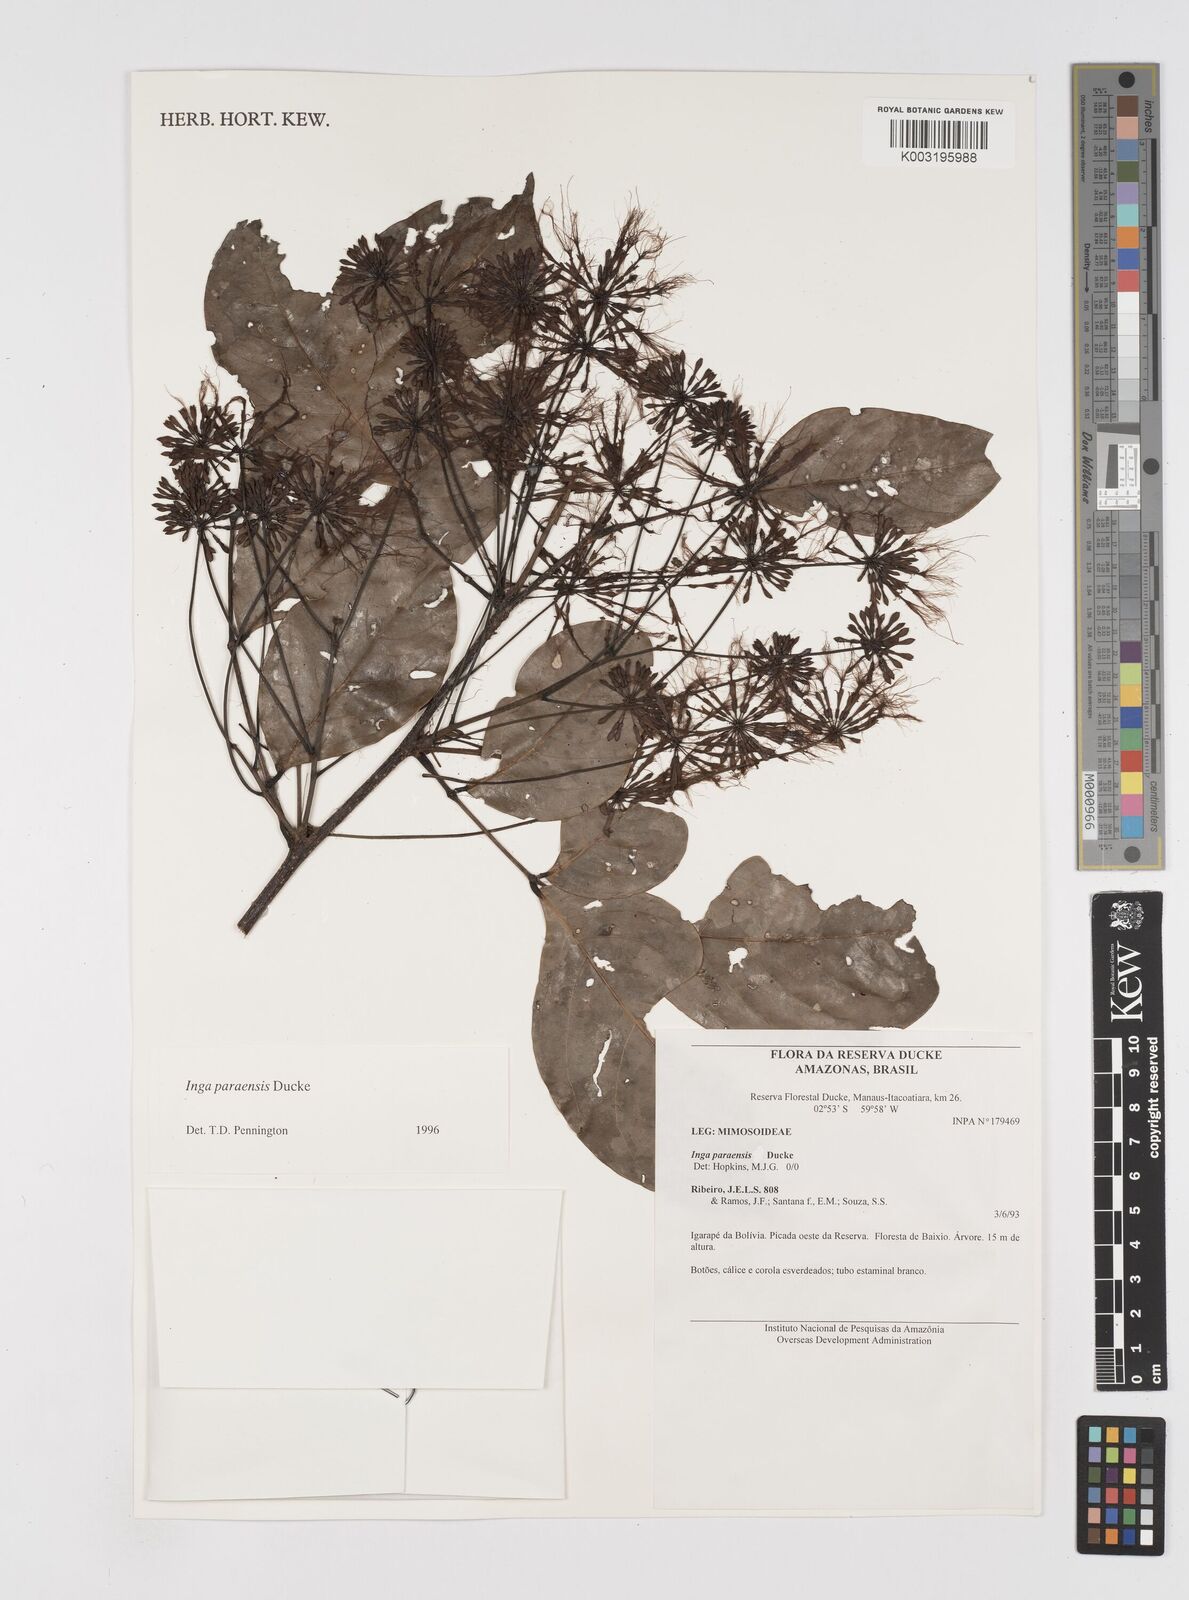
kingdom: Plantae
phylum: Tracheophyta
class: Magnoliopsida
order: Fabales
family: Fabaceae
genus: Inga
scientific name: Inga paraensis
